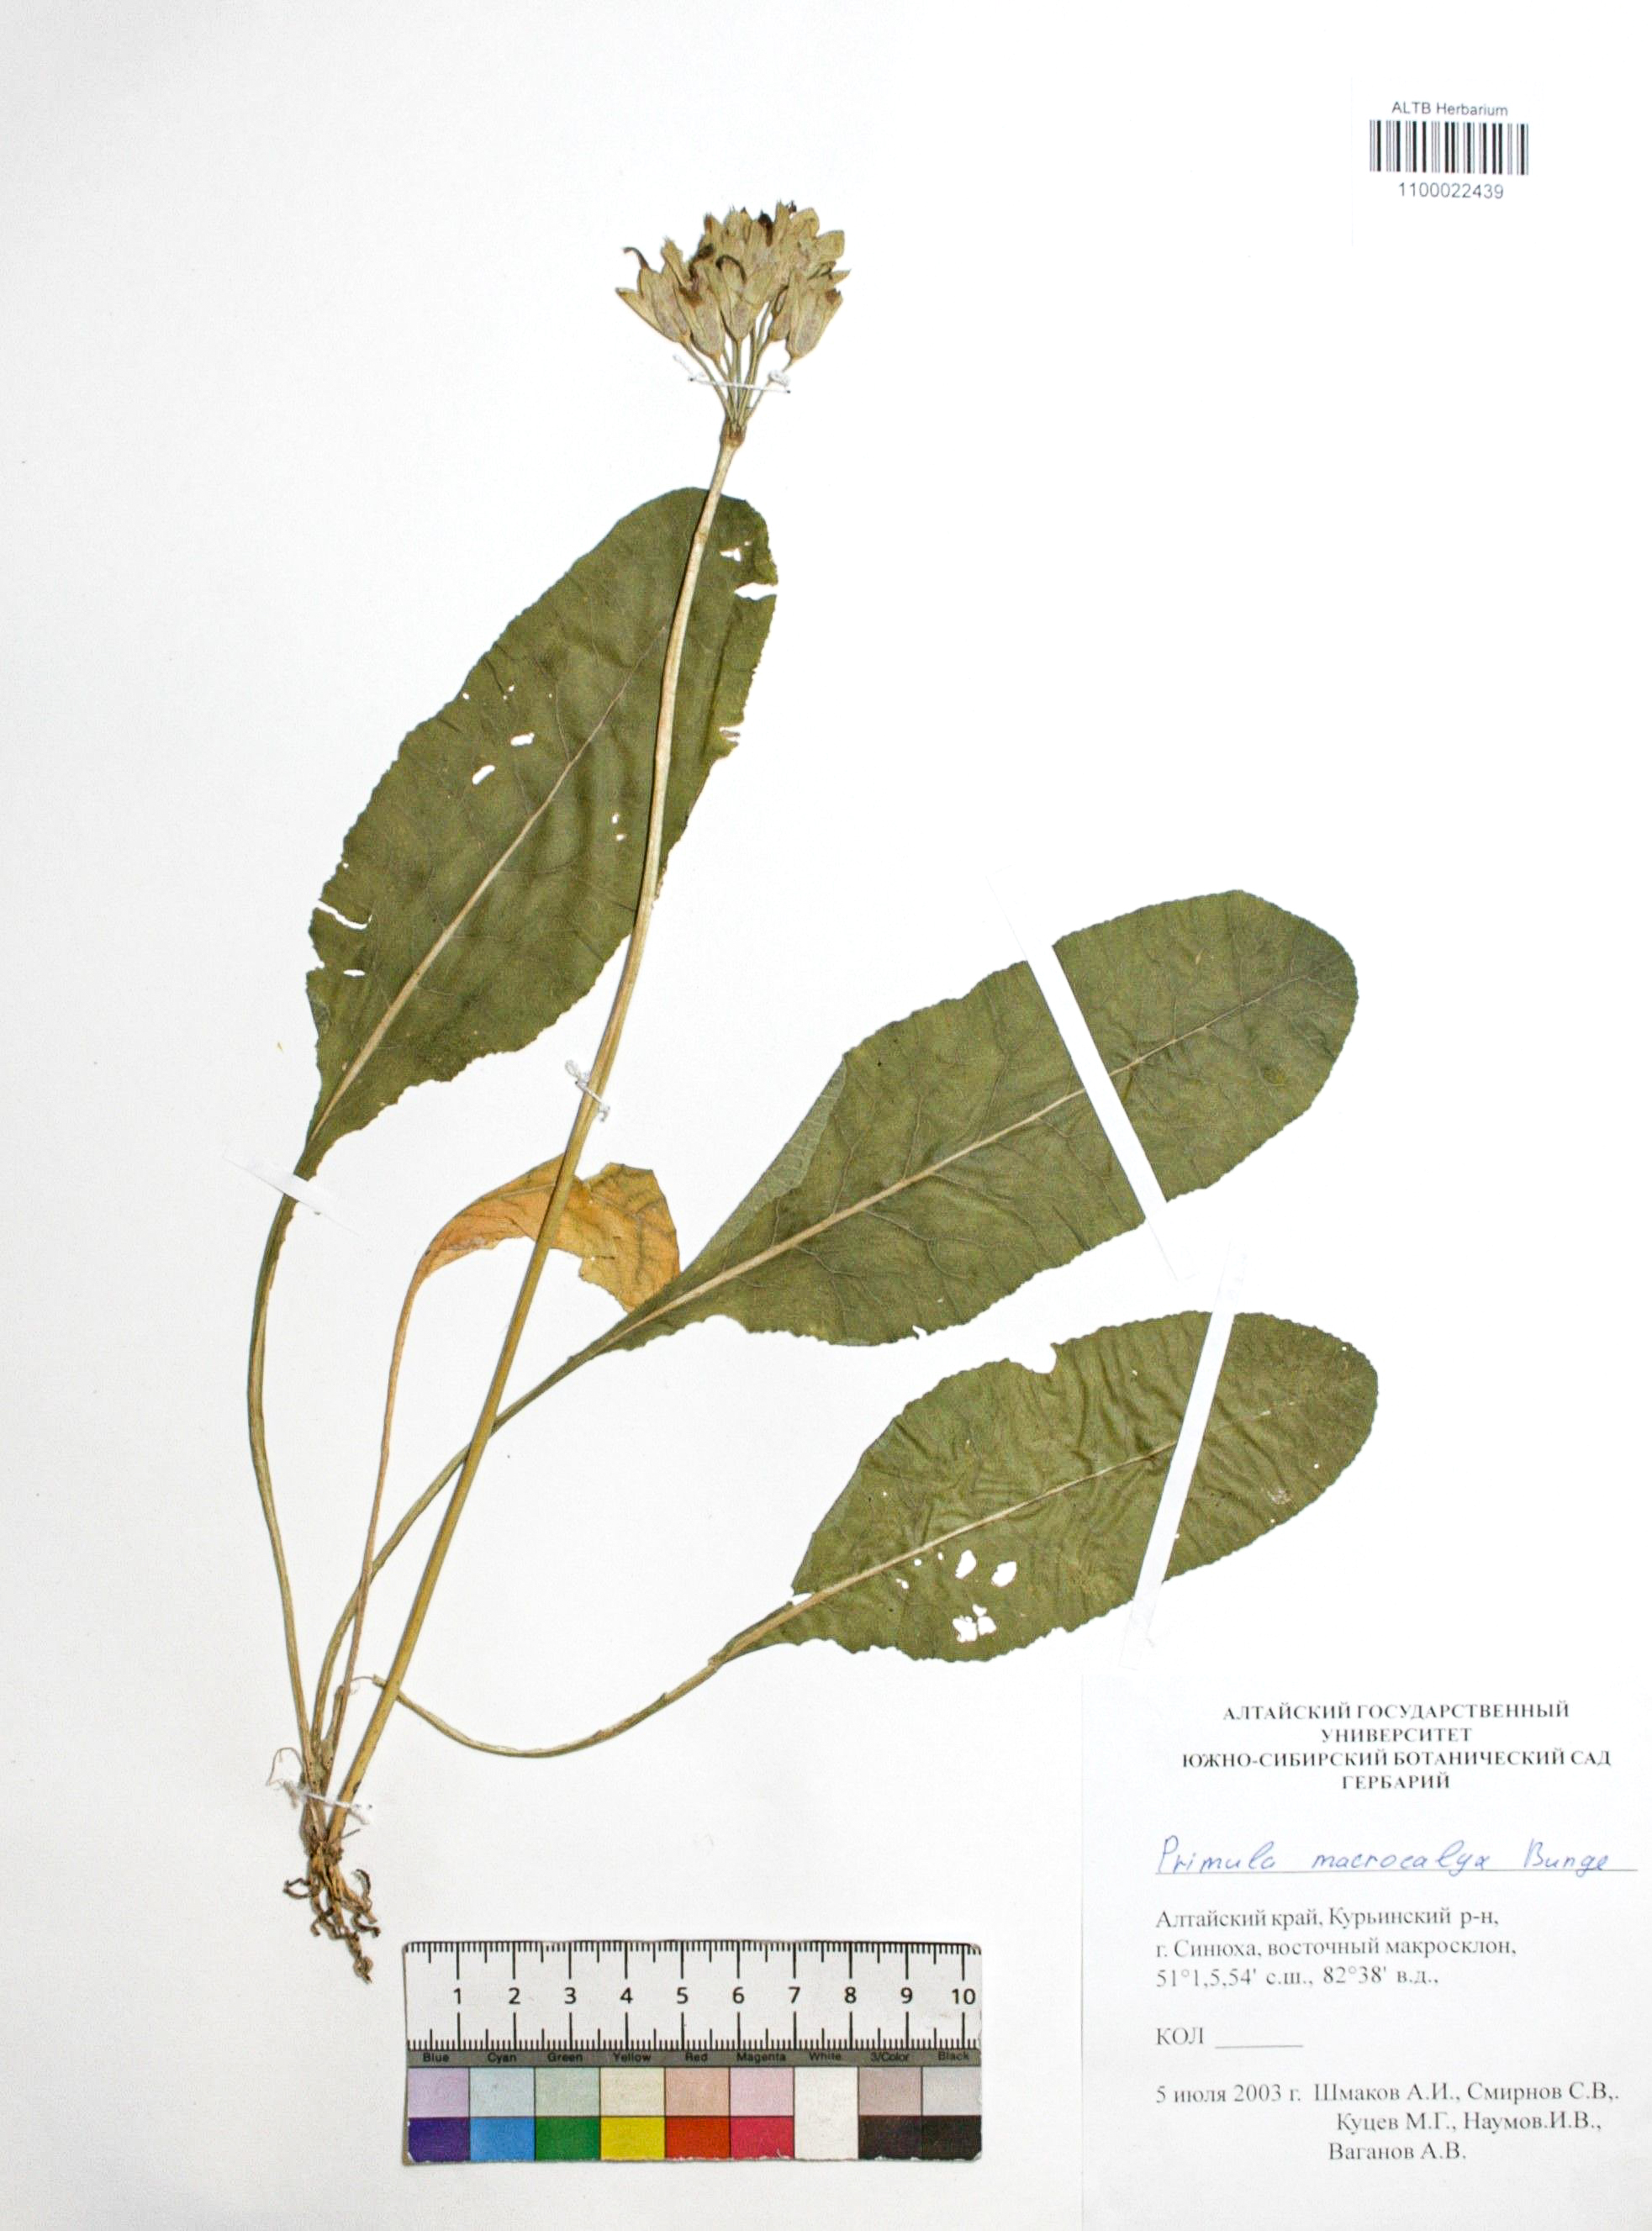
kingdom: Plantae
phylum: Tracheophyta
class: Magnoliopsida
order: Ericales
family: Primulaceae
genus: Primula
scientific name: Primula veris
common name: Cowslip
